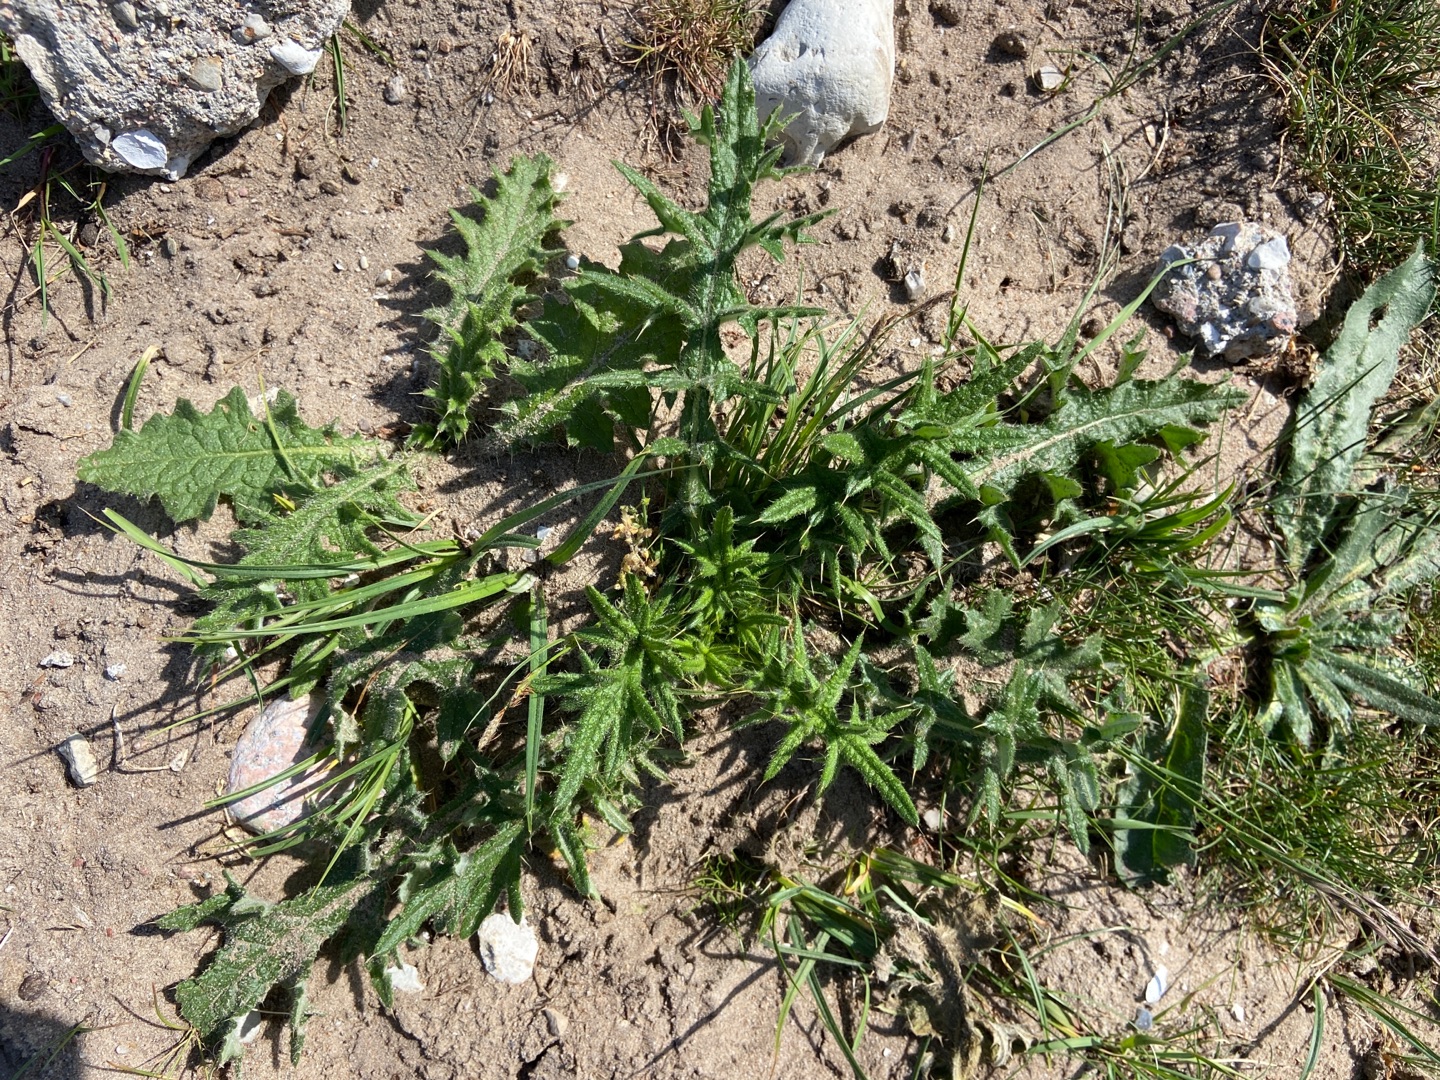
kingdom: Plantae
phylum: Tracheophyta
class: Magnoliopsida
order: Asterales
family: Asteraceae
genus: Cirsium
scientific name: Cirsium vulgare
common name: Horse-tidsel
